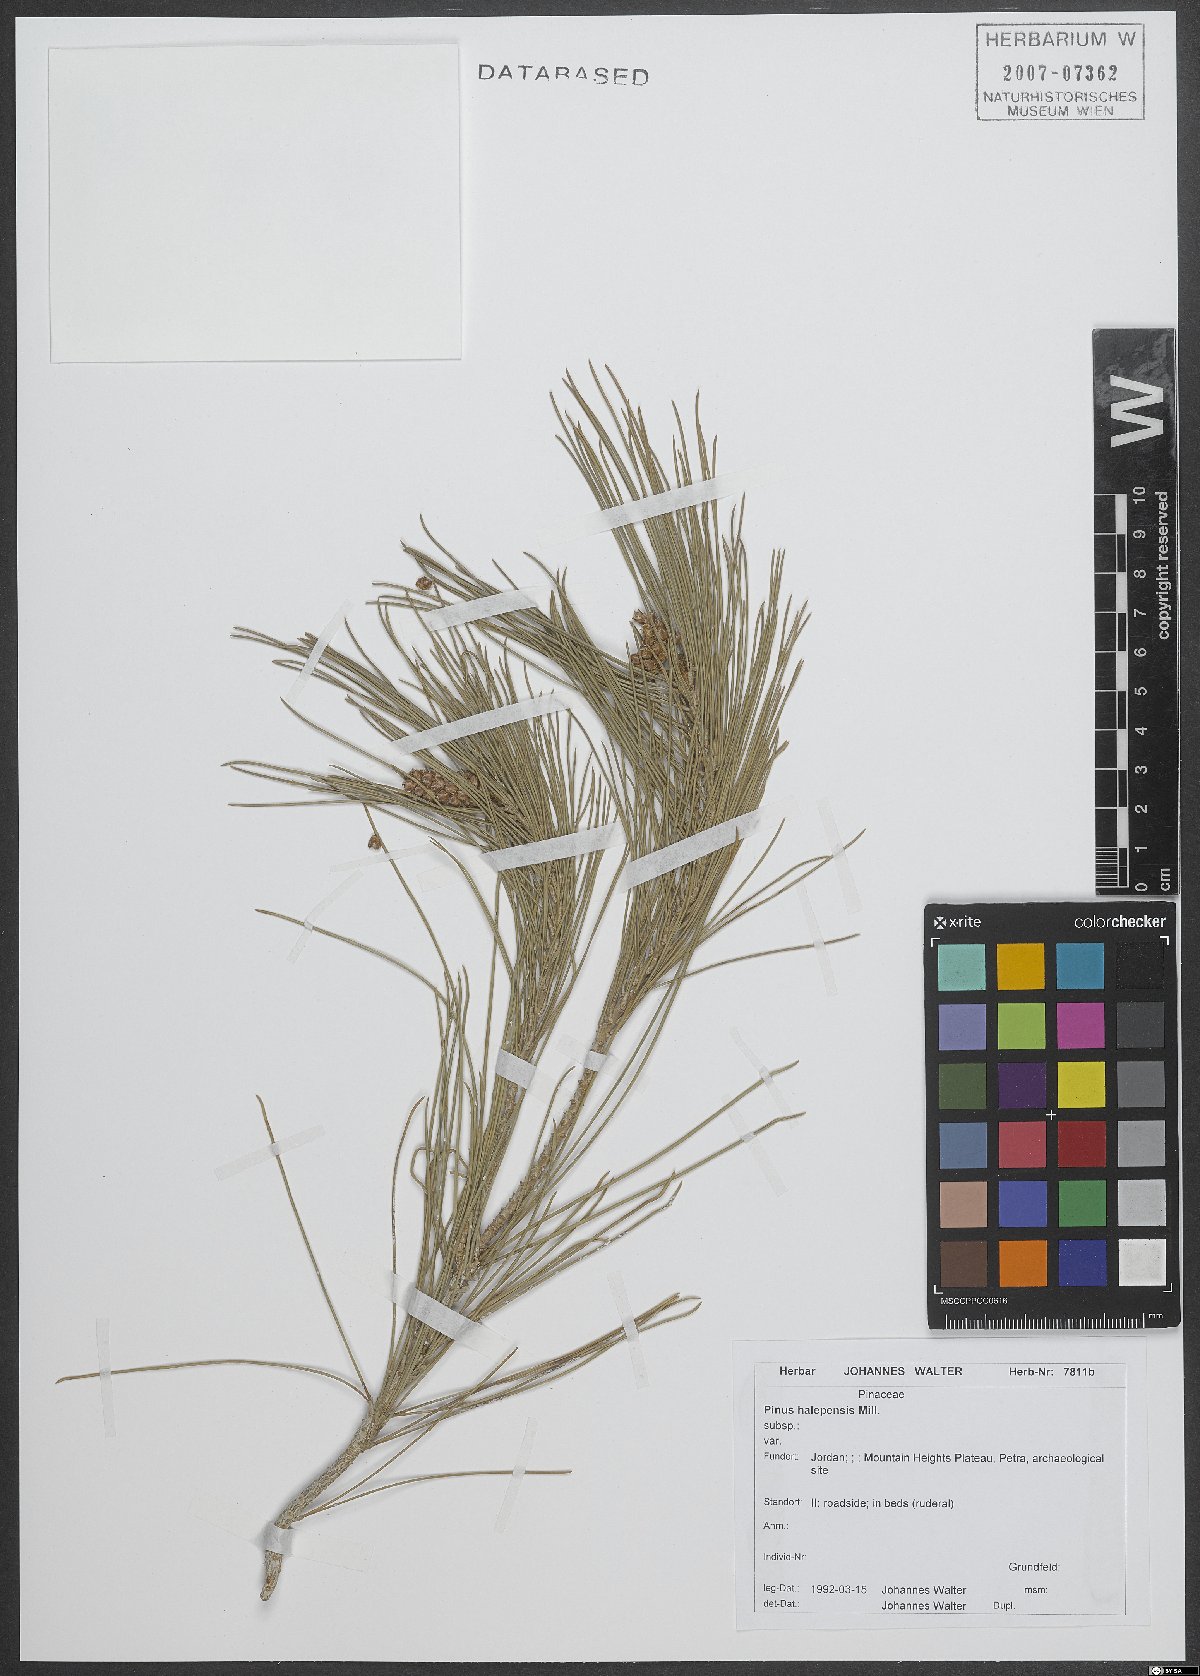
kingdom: Plantae
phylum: Tracheophyta
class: Pinopsida
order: Pinales
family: Pinaceae
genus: Pinus
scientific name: Pinus halepensis
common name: Aleppo pine
